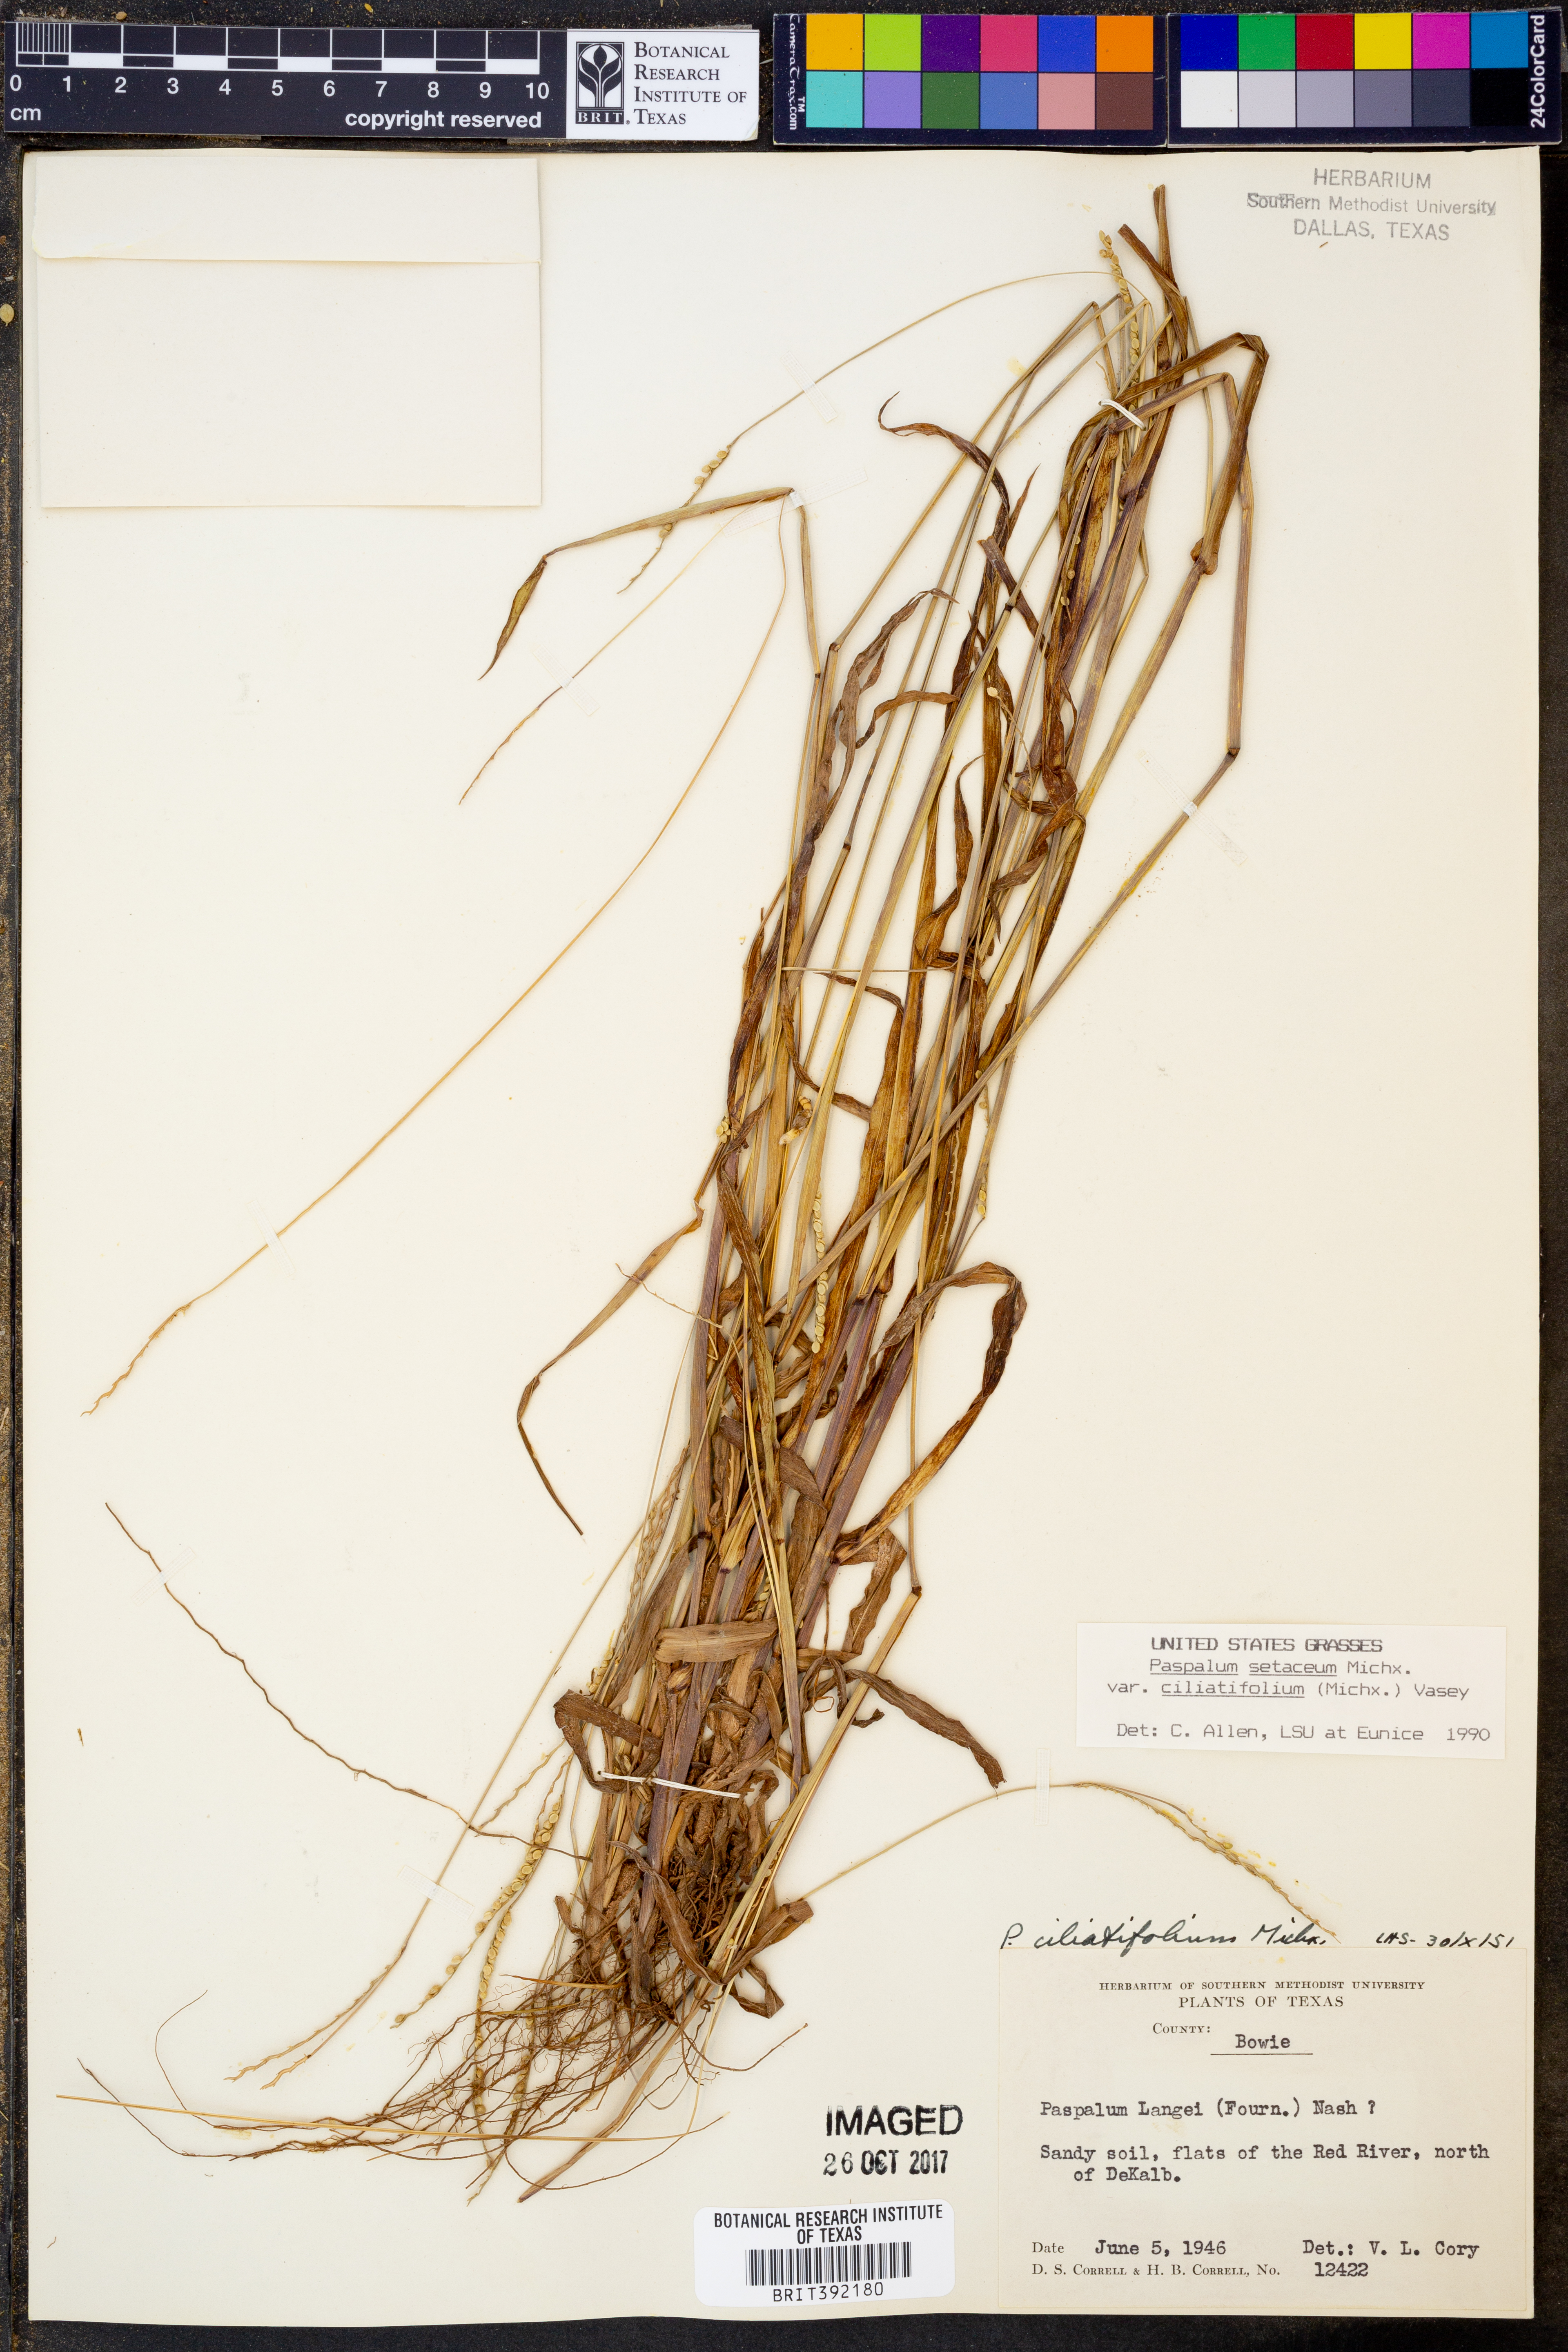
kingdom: Plantae
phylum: Tracheophyta
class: Liliopsida
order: Poales
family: Poaceae
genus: Paspalum
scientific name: Paspalum setaceum
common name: Slender paspalum
